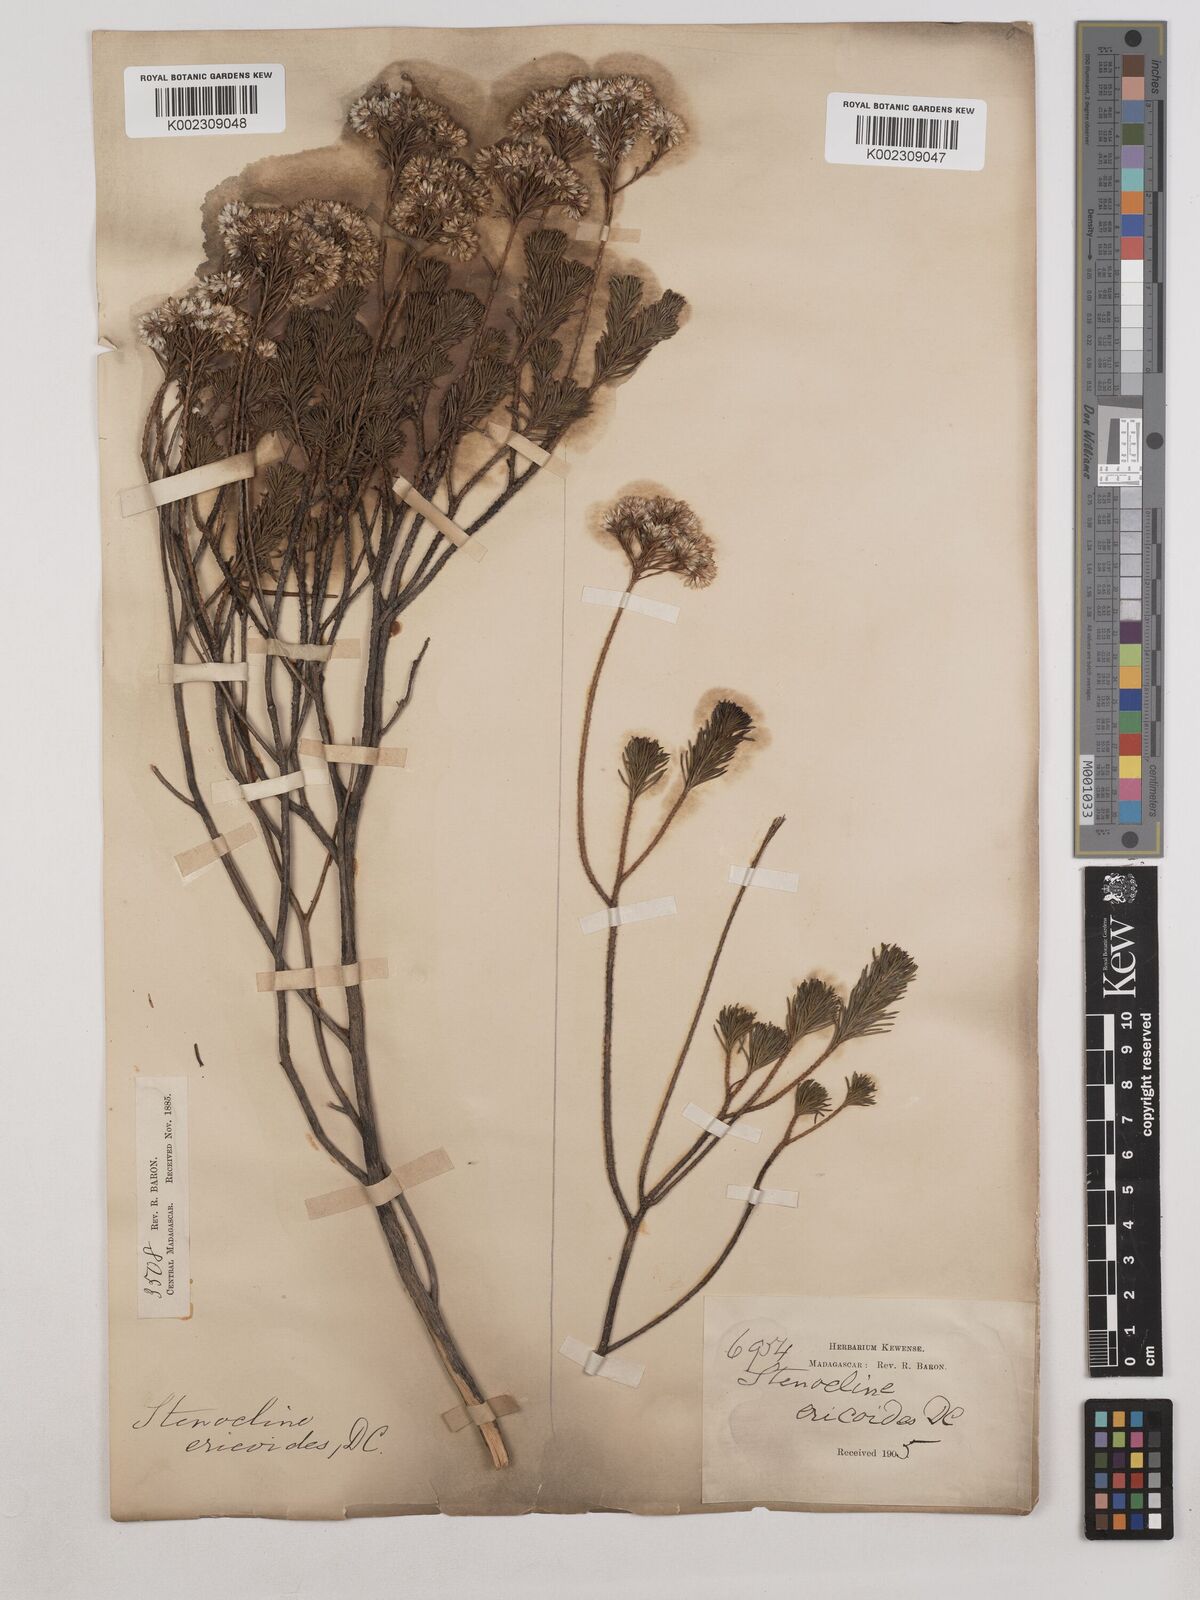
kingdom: Plantae
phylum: Tracheophyta
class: Magnoliopsida
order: Asterales
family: Asteraceae
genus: Stenocline
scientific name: Stenocline ericoides
